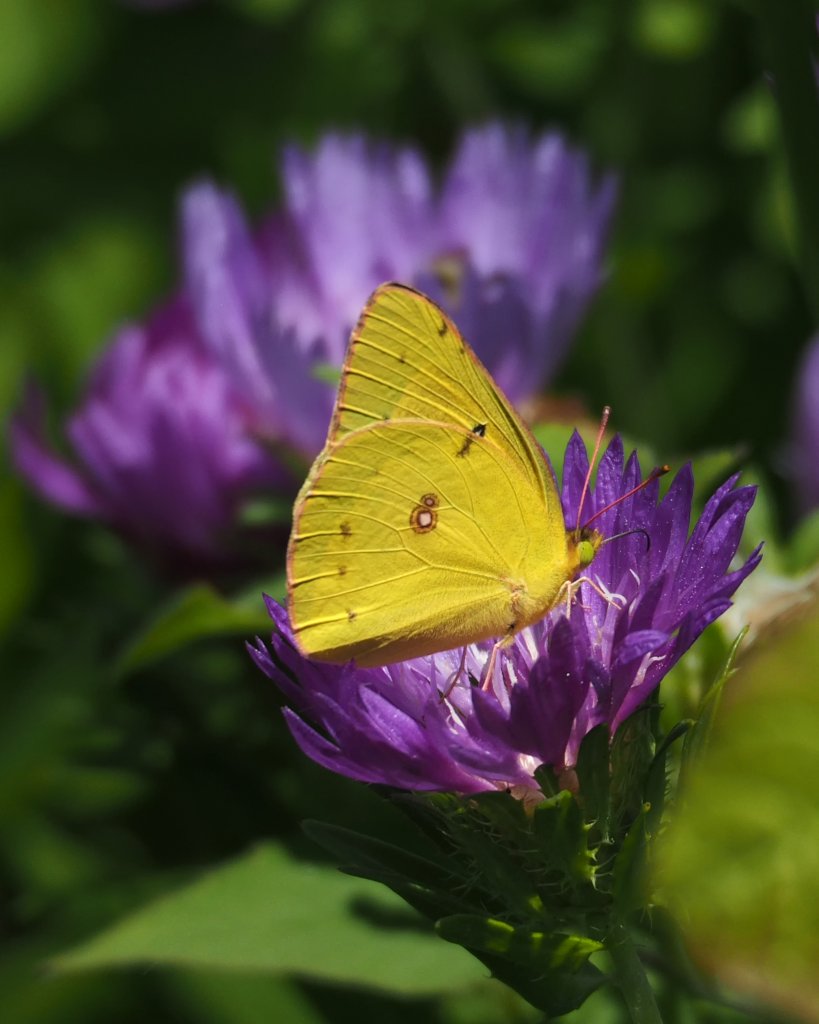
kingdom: Animalia
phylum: Arthropoda
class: Insecta
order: Lepidoptera
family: Pieridae
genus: Colias
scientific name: Colias eurytheme
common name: Orange Sulphur
